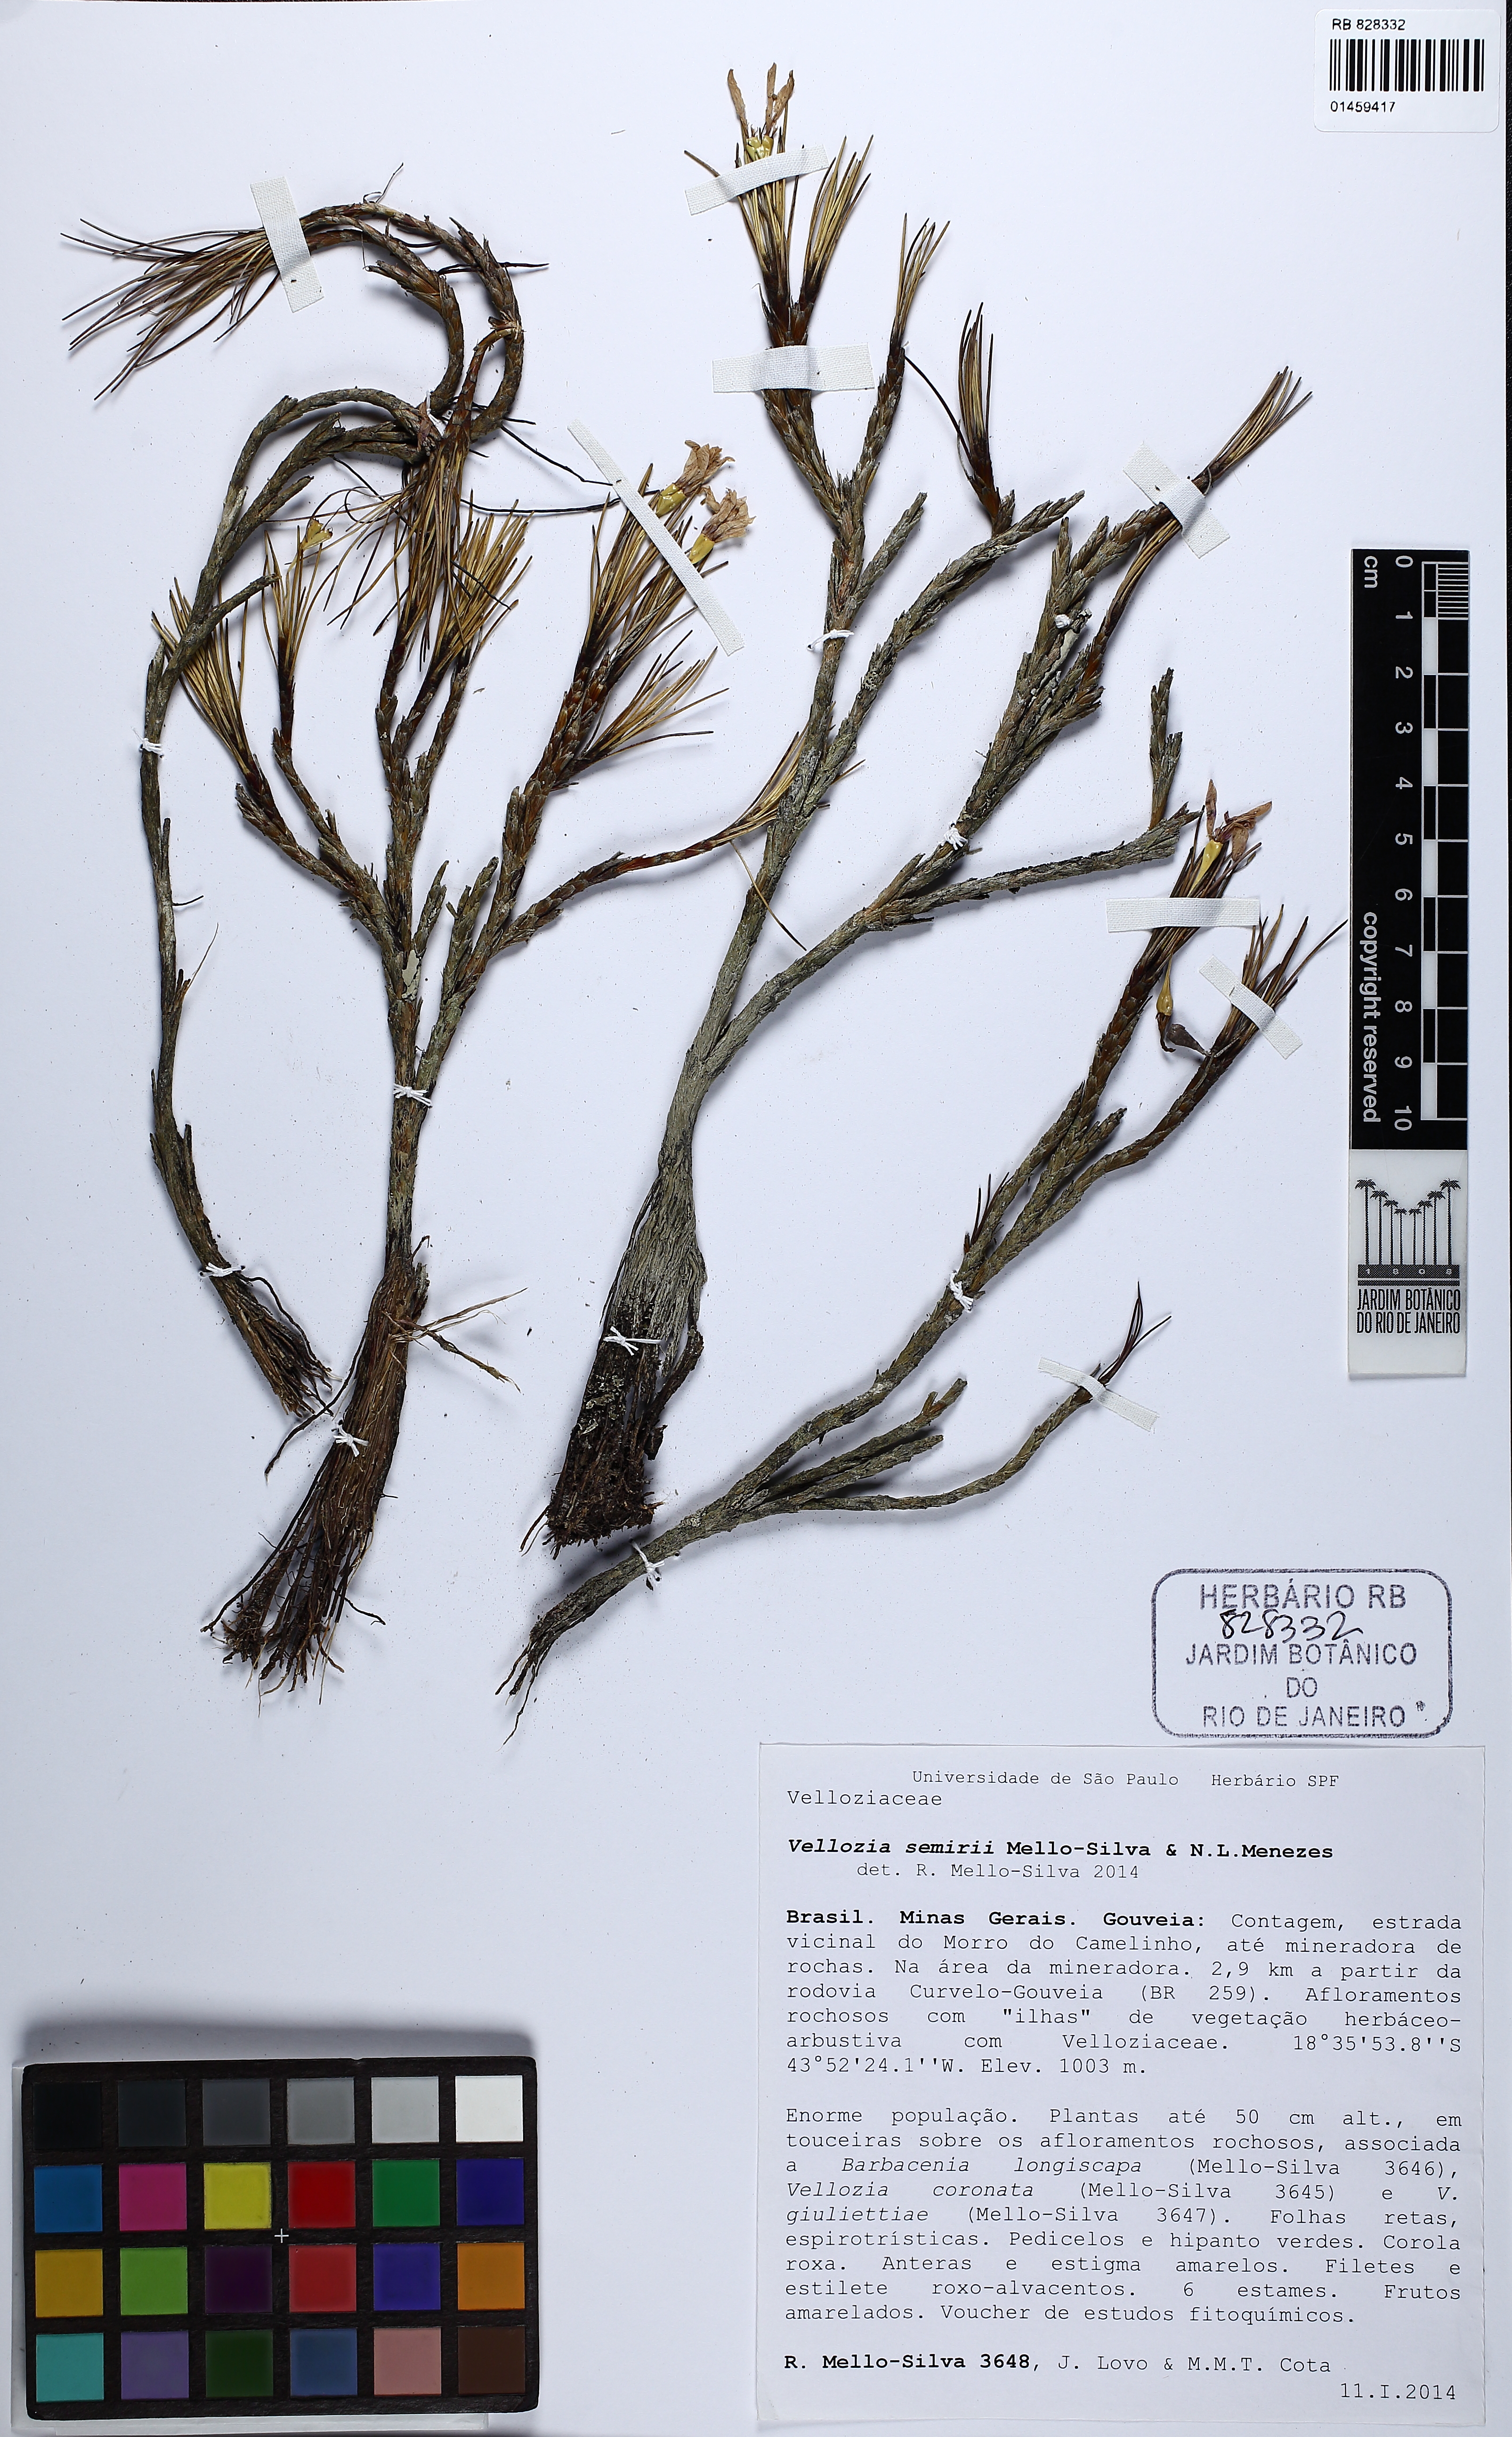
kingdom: Plantae
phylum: Tracheophyta
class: Liliopsida
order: Pandanales
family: Velloziaceae
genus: Vellozia
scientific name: Vellozia semirii
